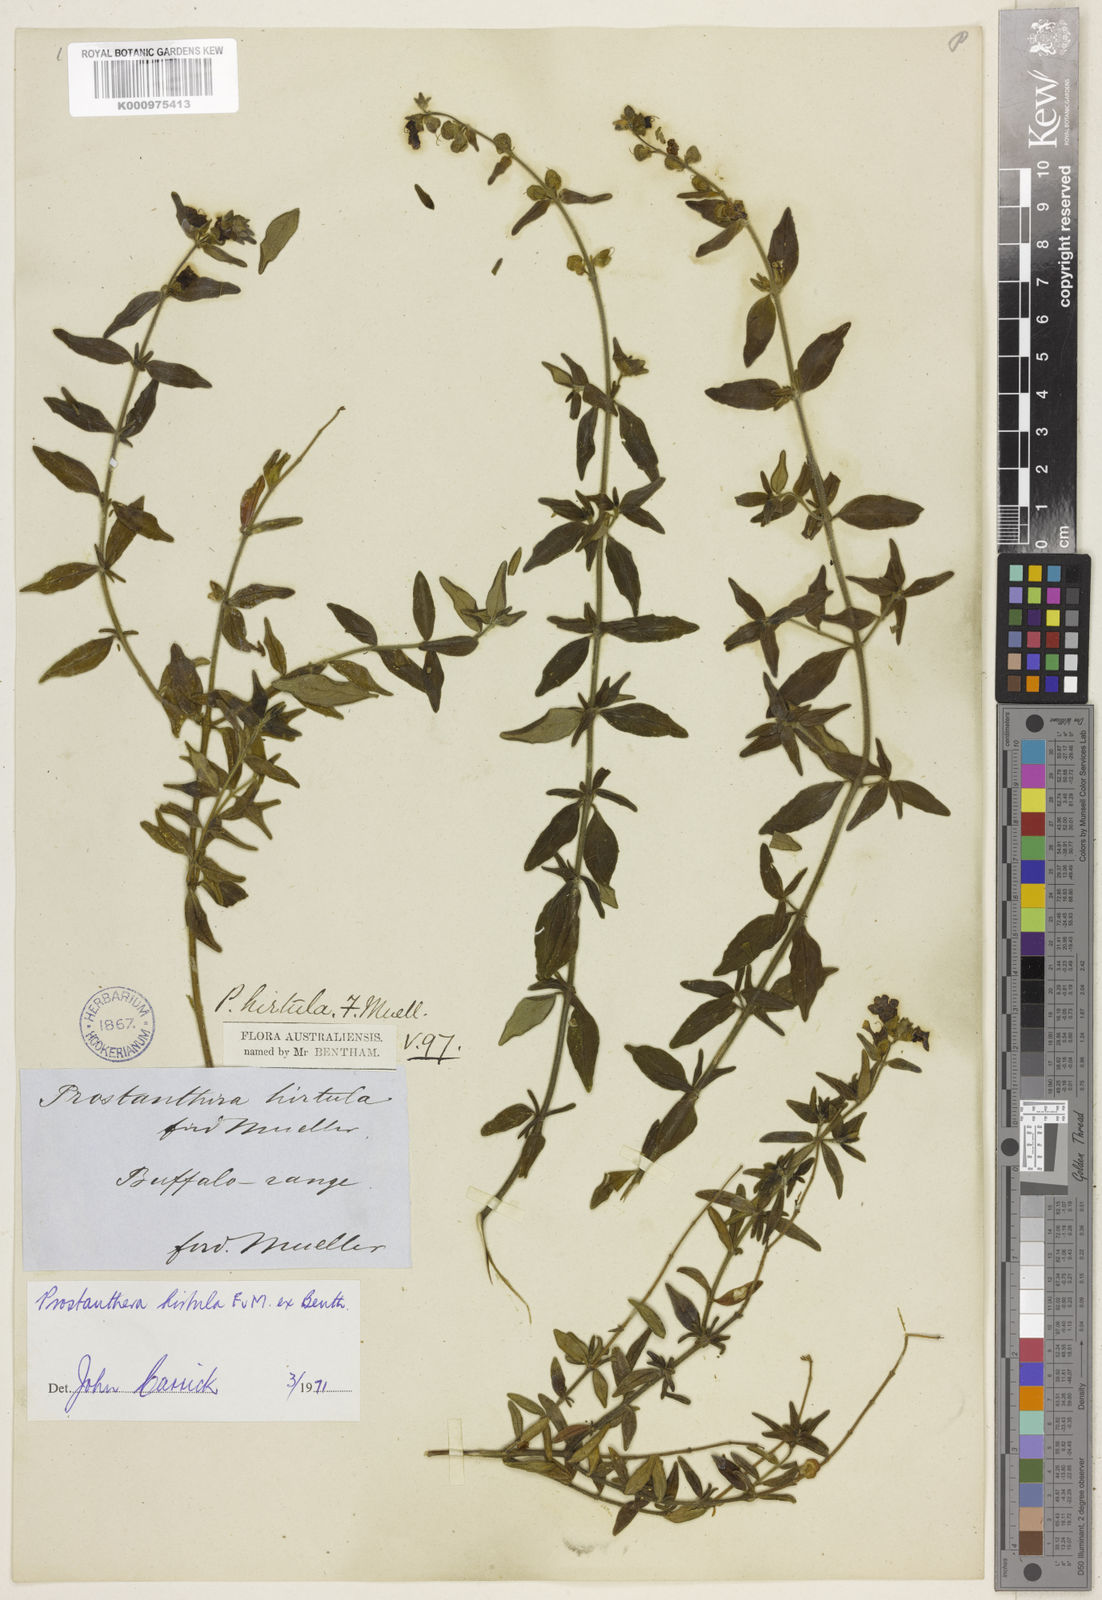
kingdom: Plantae
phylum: Tracheophyta
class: Magnoliopsida
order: Lamiales
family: Lamiaceae
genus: Prostanthera
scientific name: Prostanthera hirtula
